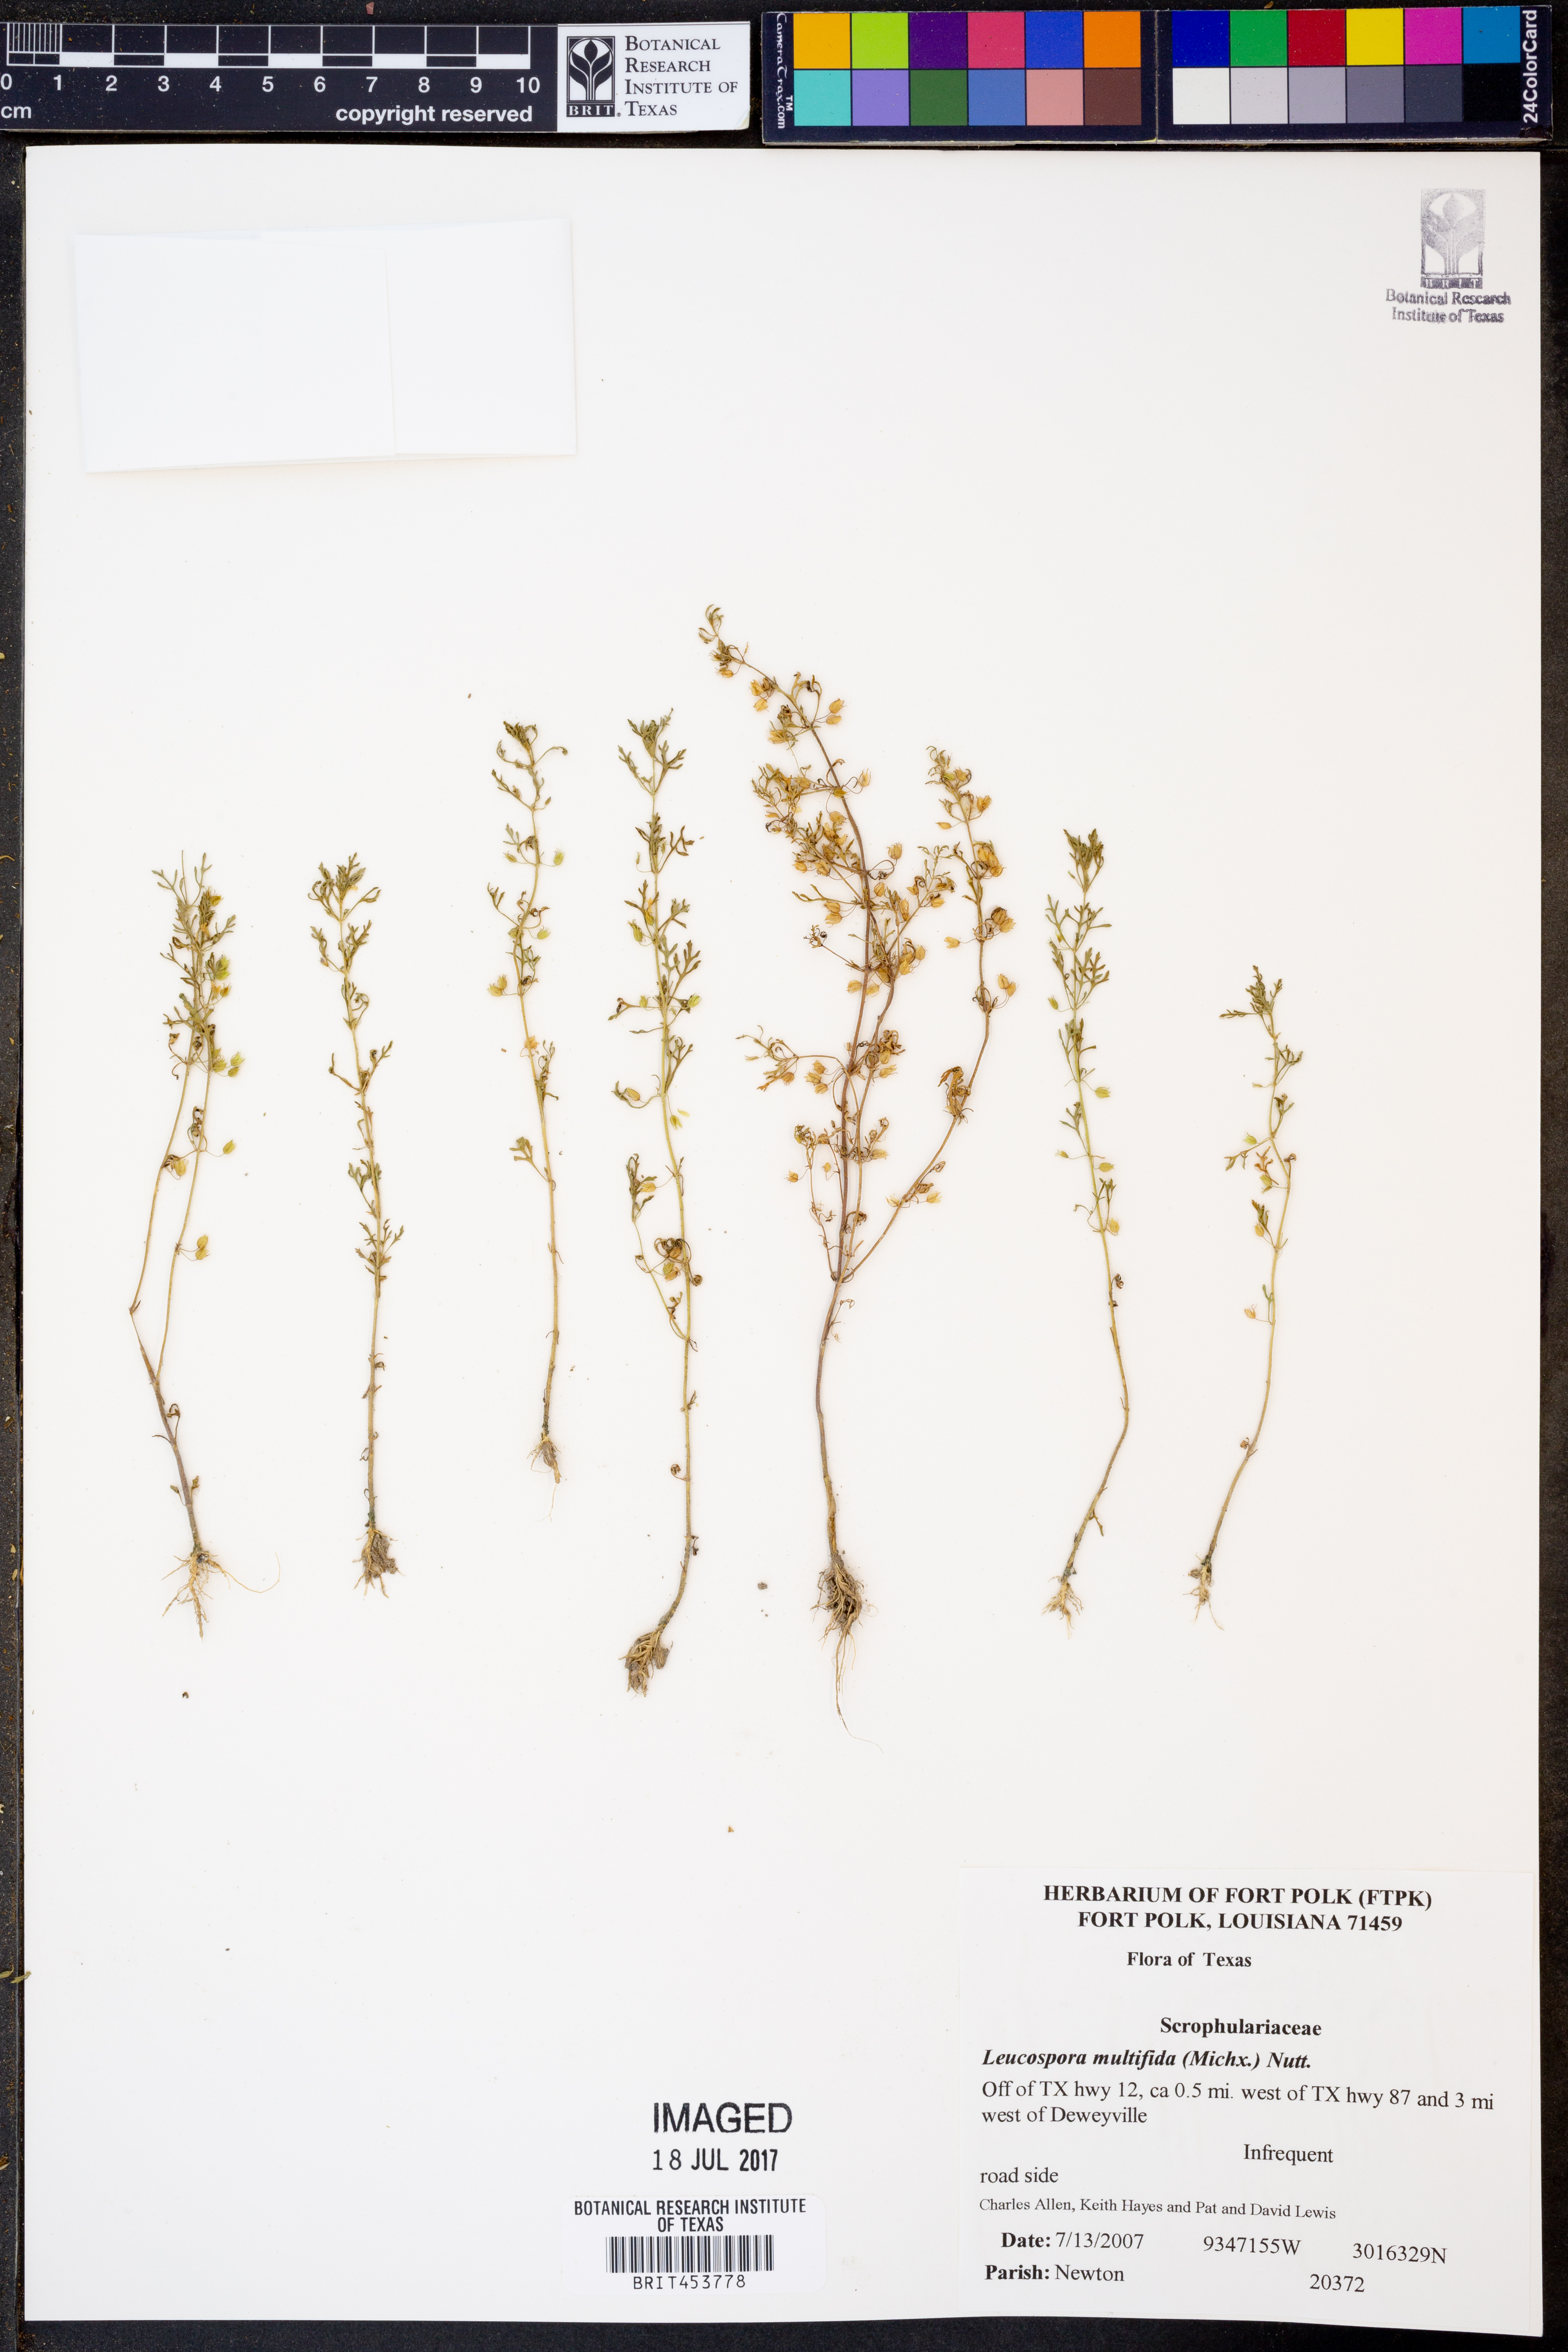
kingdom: Plantae
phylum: Tracheophyta
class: Magnoliopsida
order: Lamiales
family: Plantaginaceae
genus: Leucospora
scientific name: Leucospora multifida
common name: Narrow-leaf paleseed
